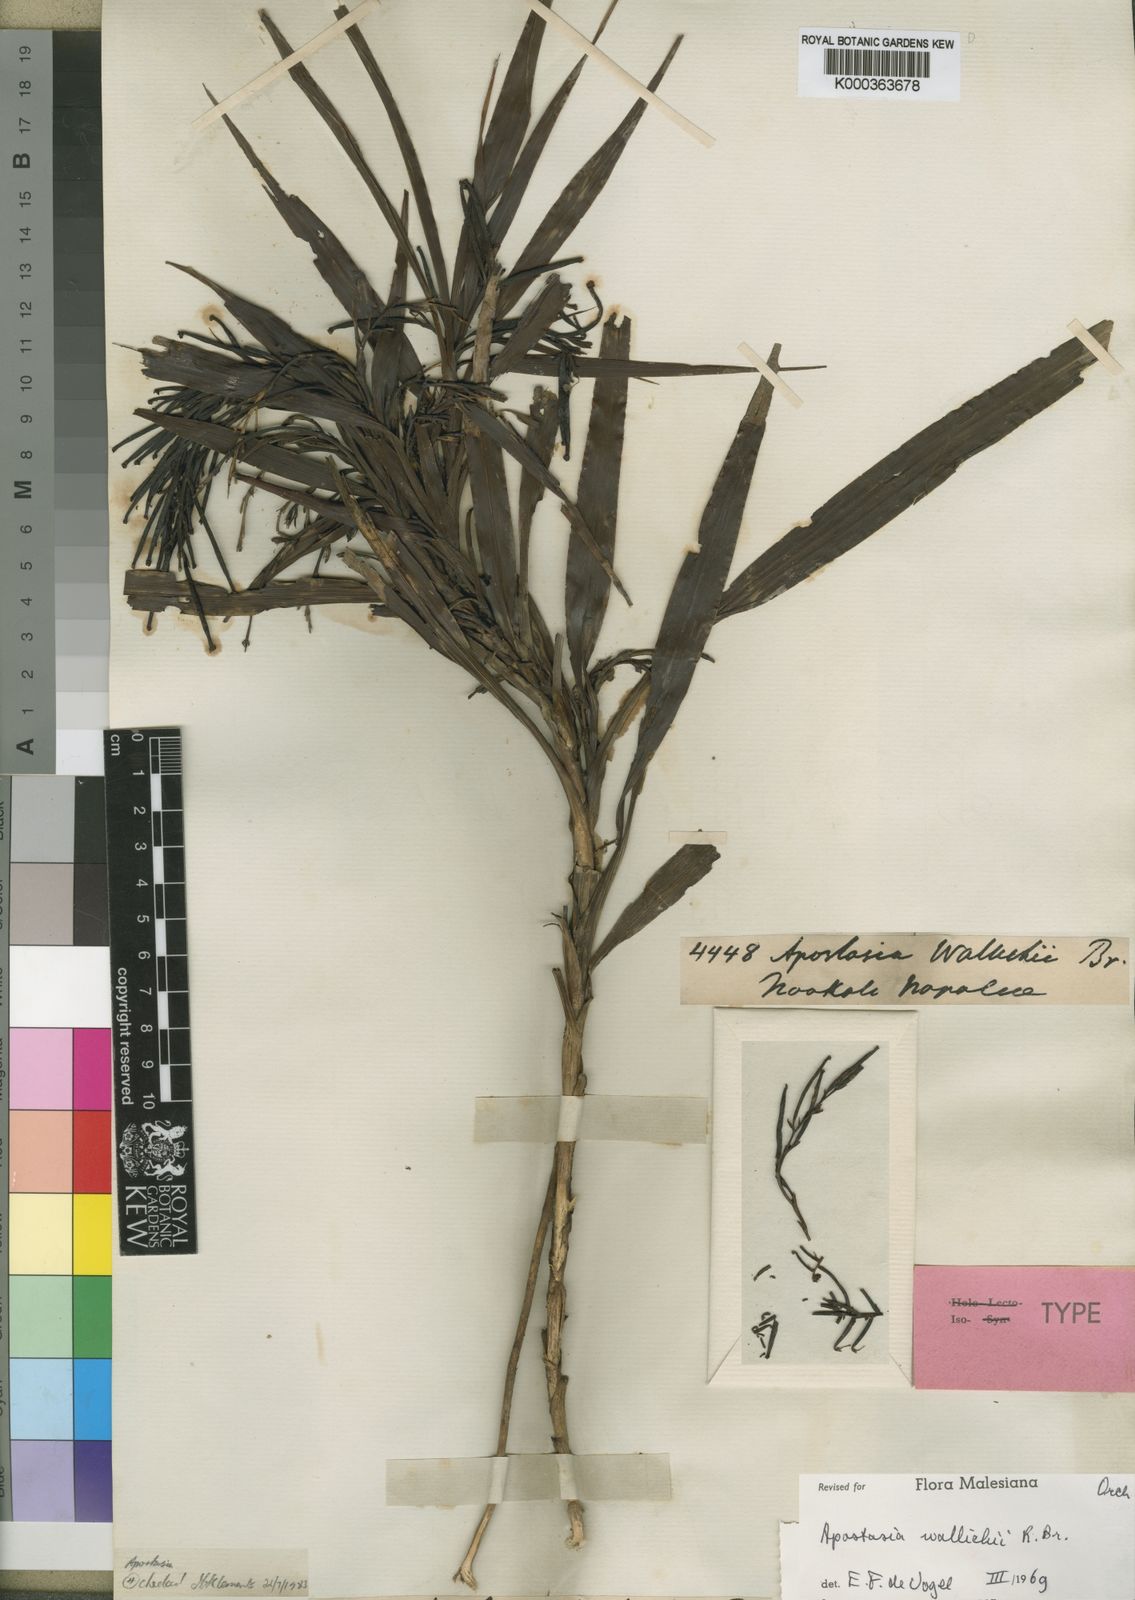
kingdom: Plantae
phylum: Tracheophyta
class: Liliopsida
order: Asparagales
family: Orchidaceae
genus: Apostasia
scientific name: Apostasia wallichii
